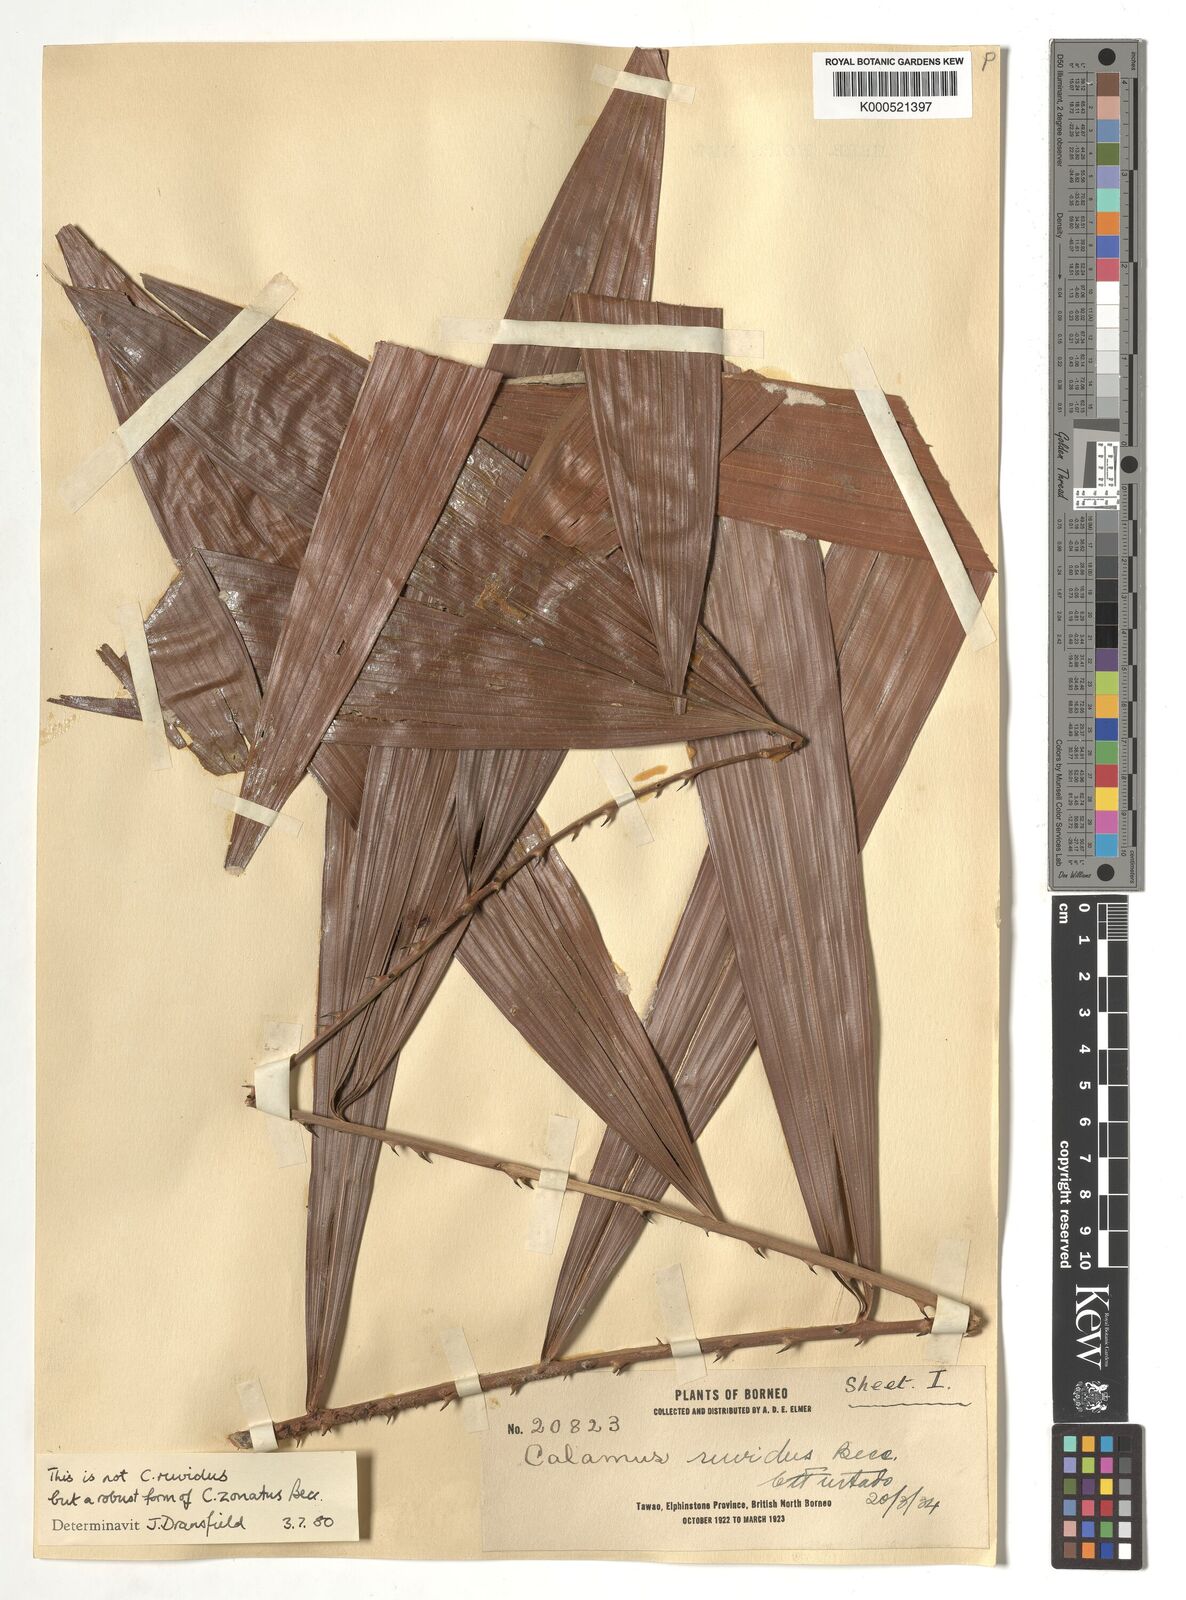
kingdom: Plantae
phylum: Tracheophyta
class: Liliopsida
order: Arecales
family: Arecaceae
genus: Calamus
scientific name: Calamus zonatus
